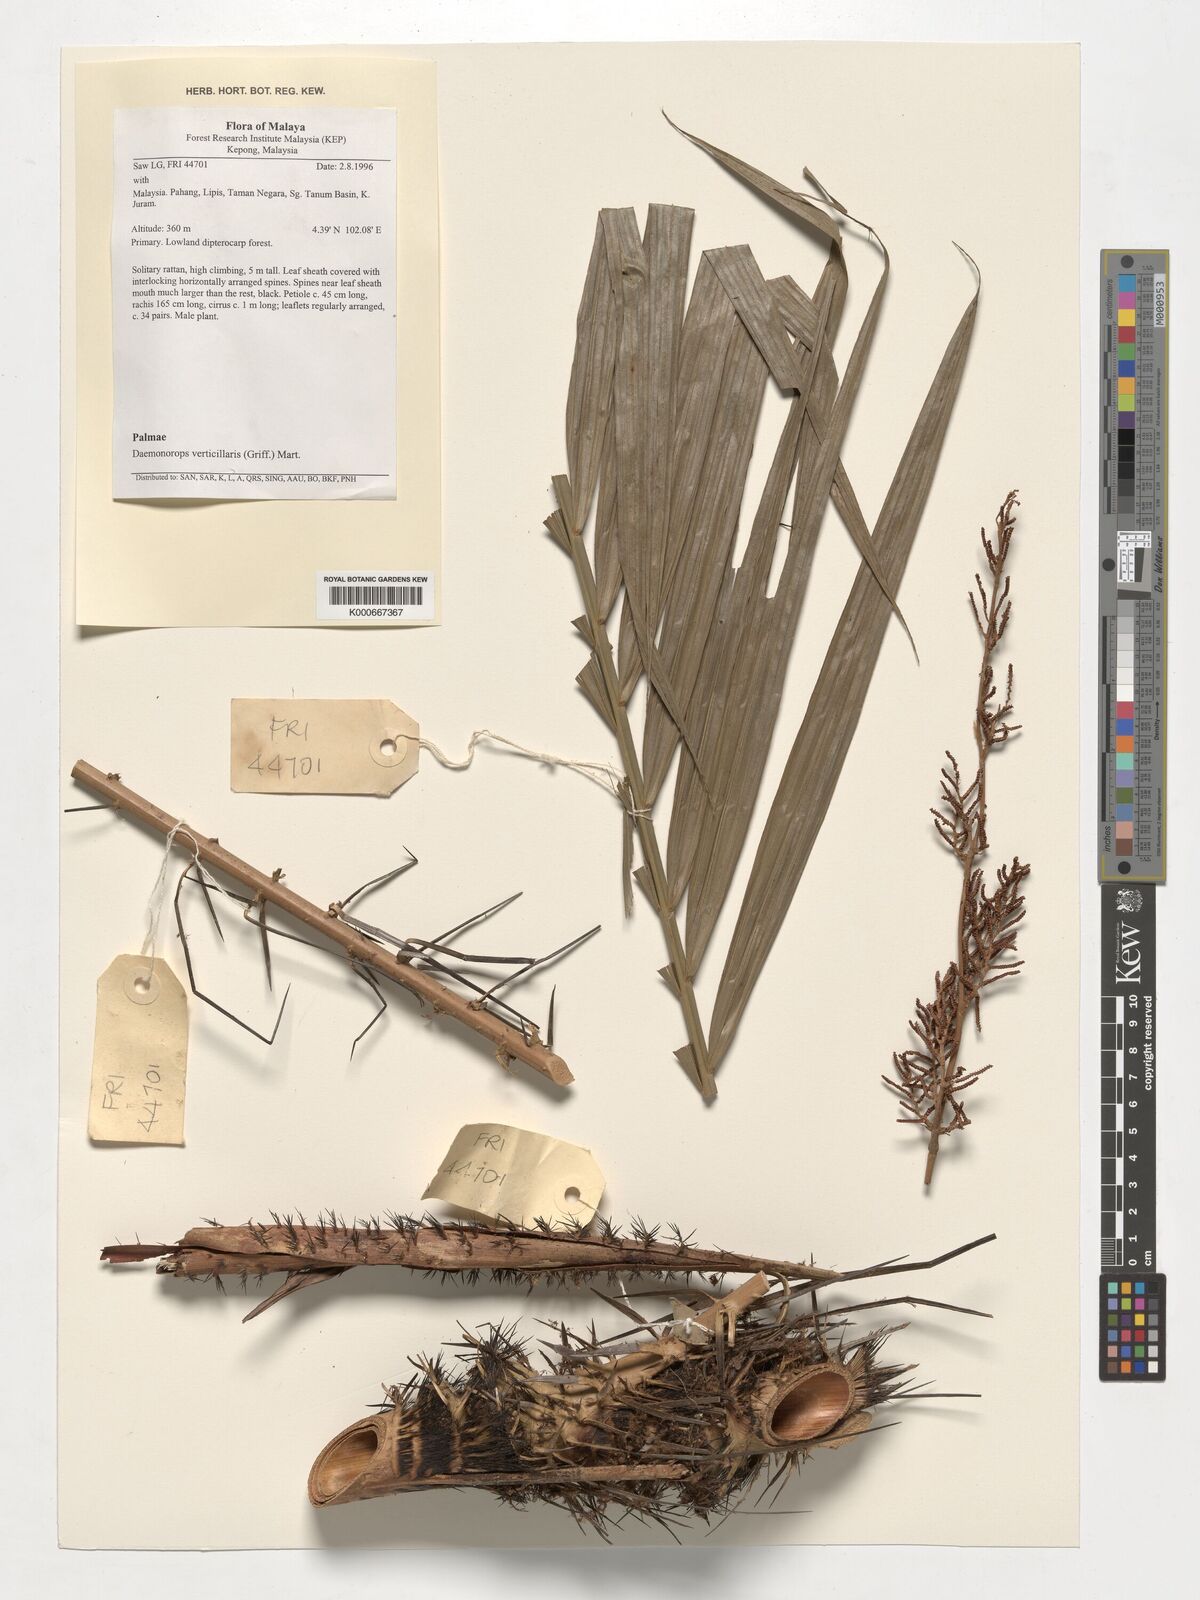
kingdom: Plantae
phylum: Tracheophyta
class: Liliopsida
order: Arecales
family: Arecaceae
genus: Calamus
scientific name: Calamus verticillaris
